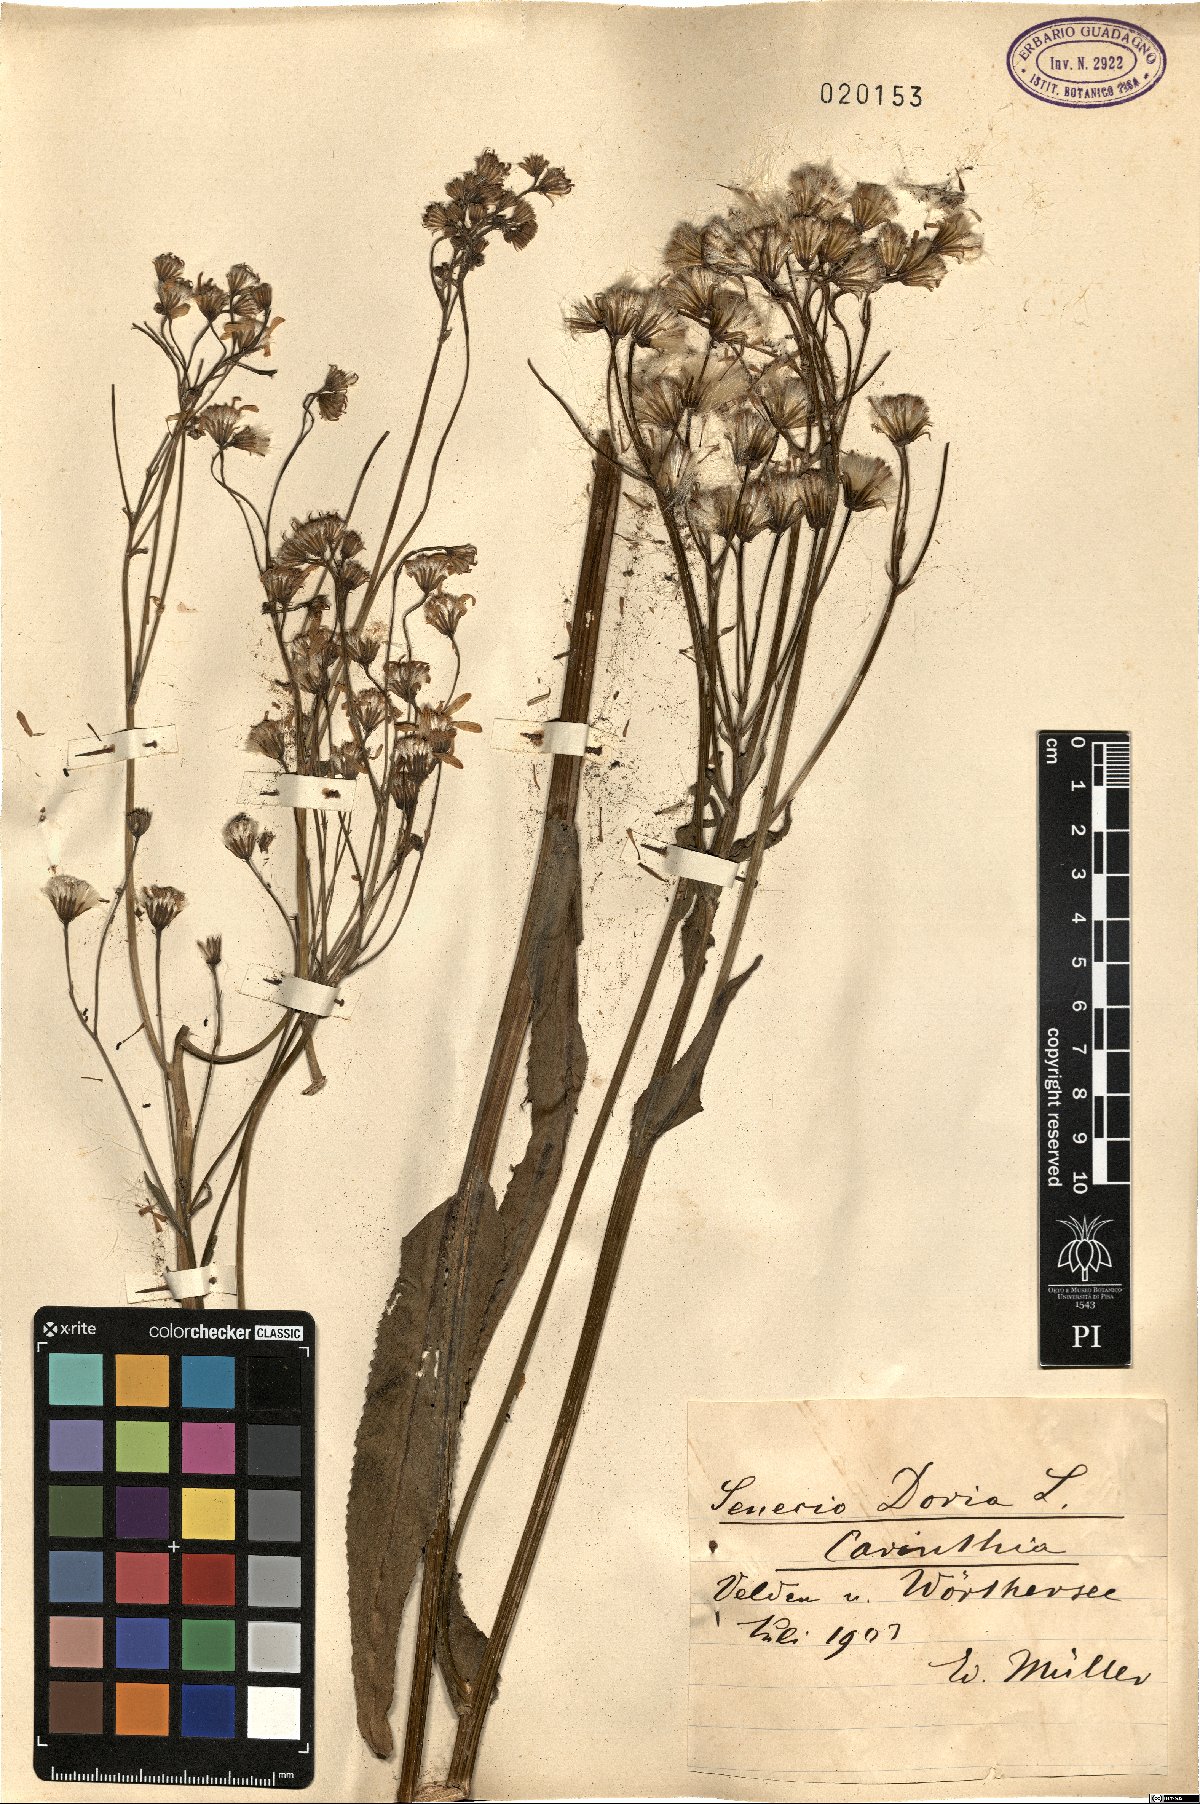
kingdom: Plantae
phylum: Tracheophyta
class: Magnoliopsida
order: Asterales
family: Asteraceae
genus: Senecio
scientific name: Senecio doria
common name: Golden ragwort
